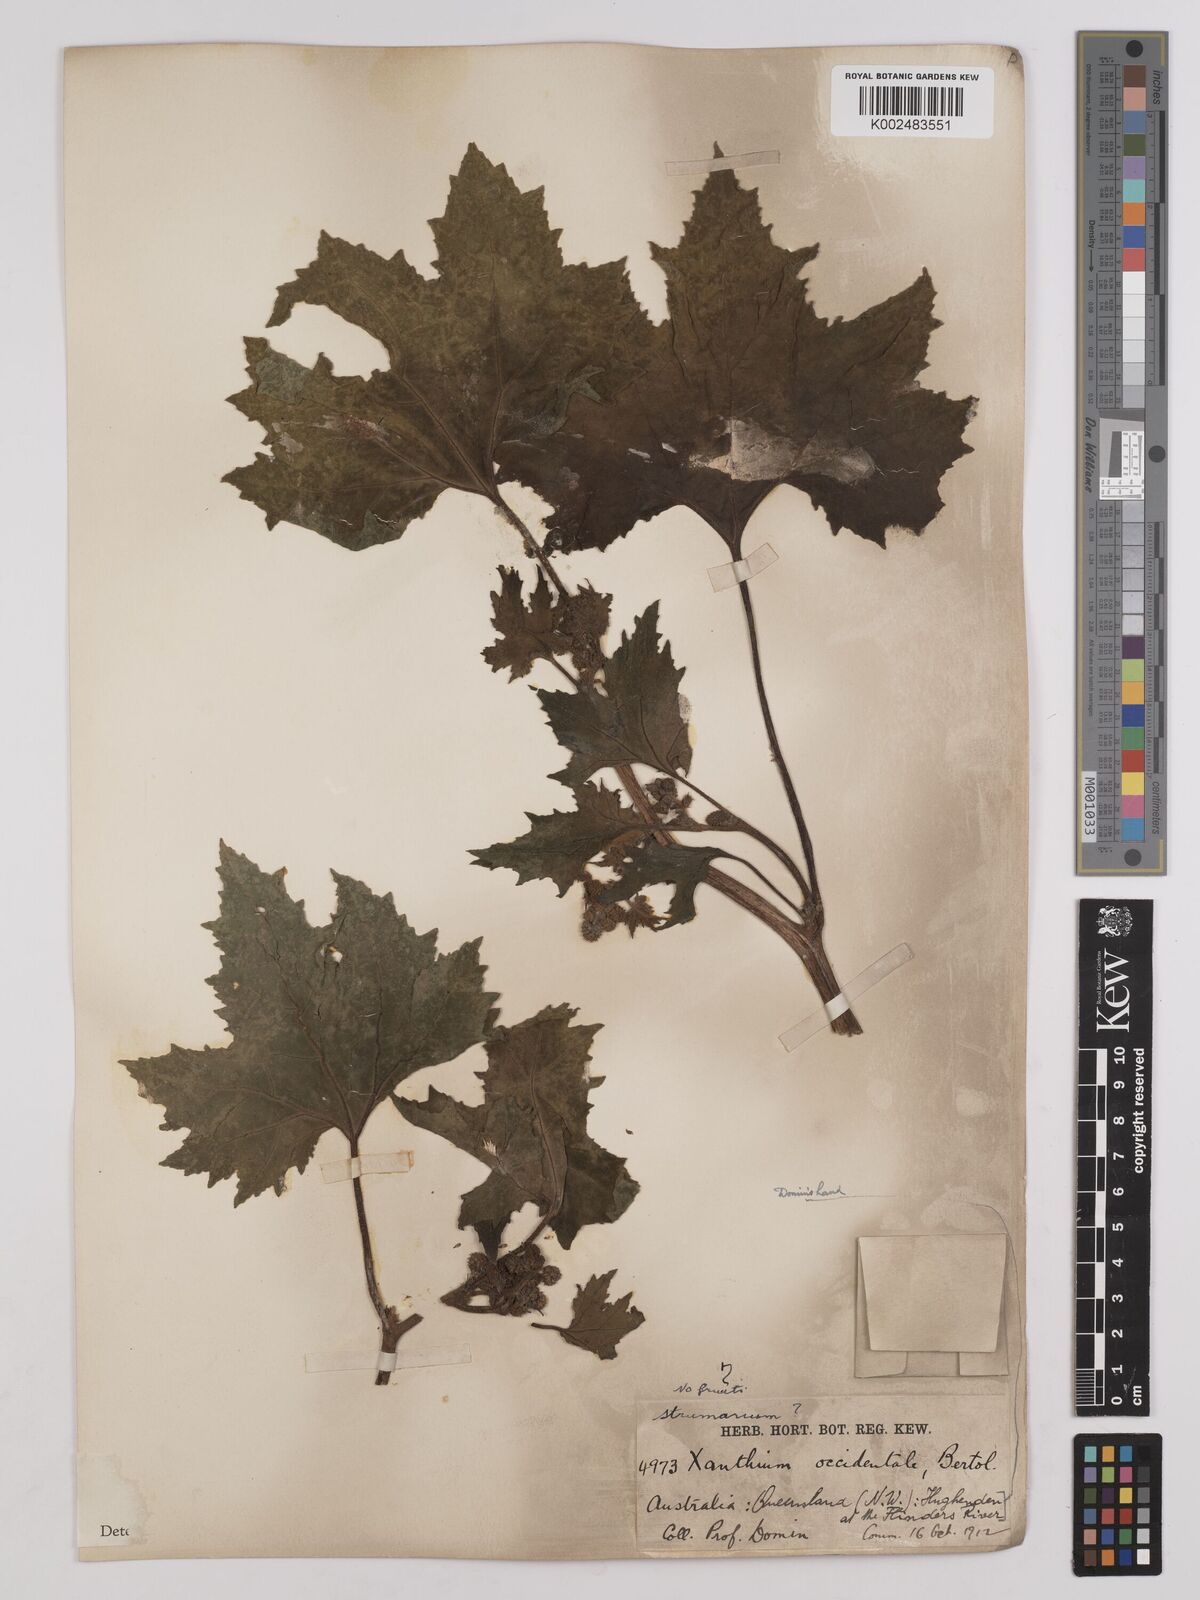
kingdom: Plantae
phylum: Tracheophyta
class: Magnoliopsida
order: Asterales
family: Asteraceae
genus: Xanthium
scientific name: Xanthium occidentale
